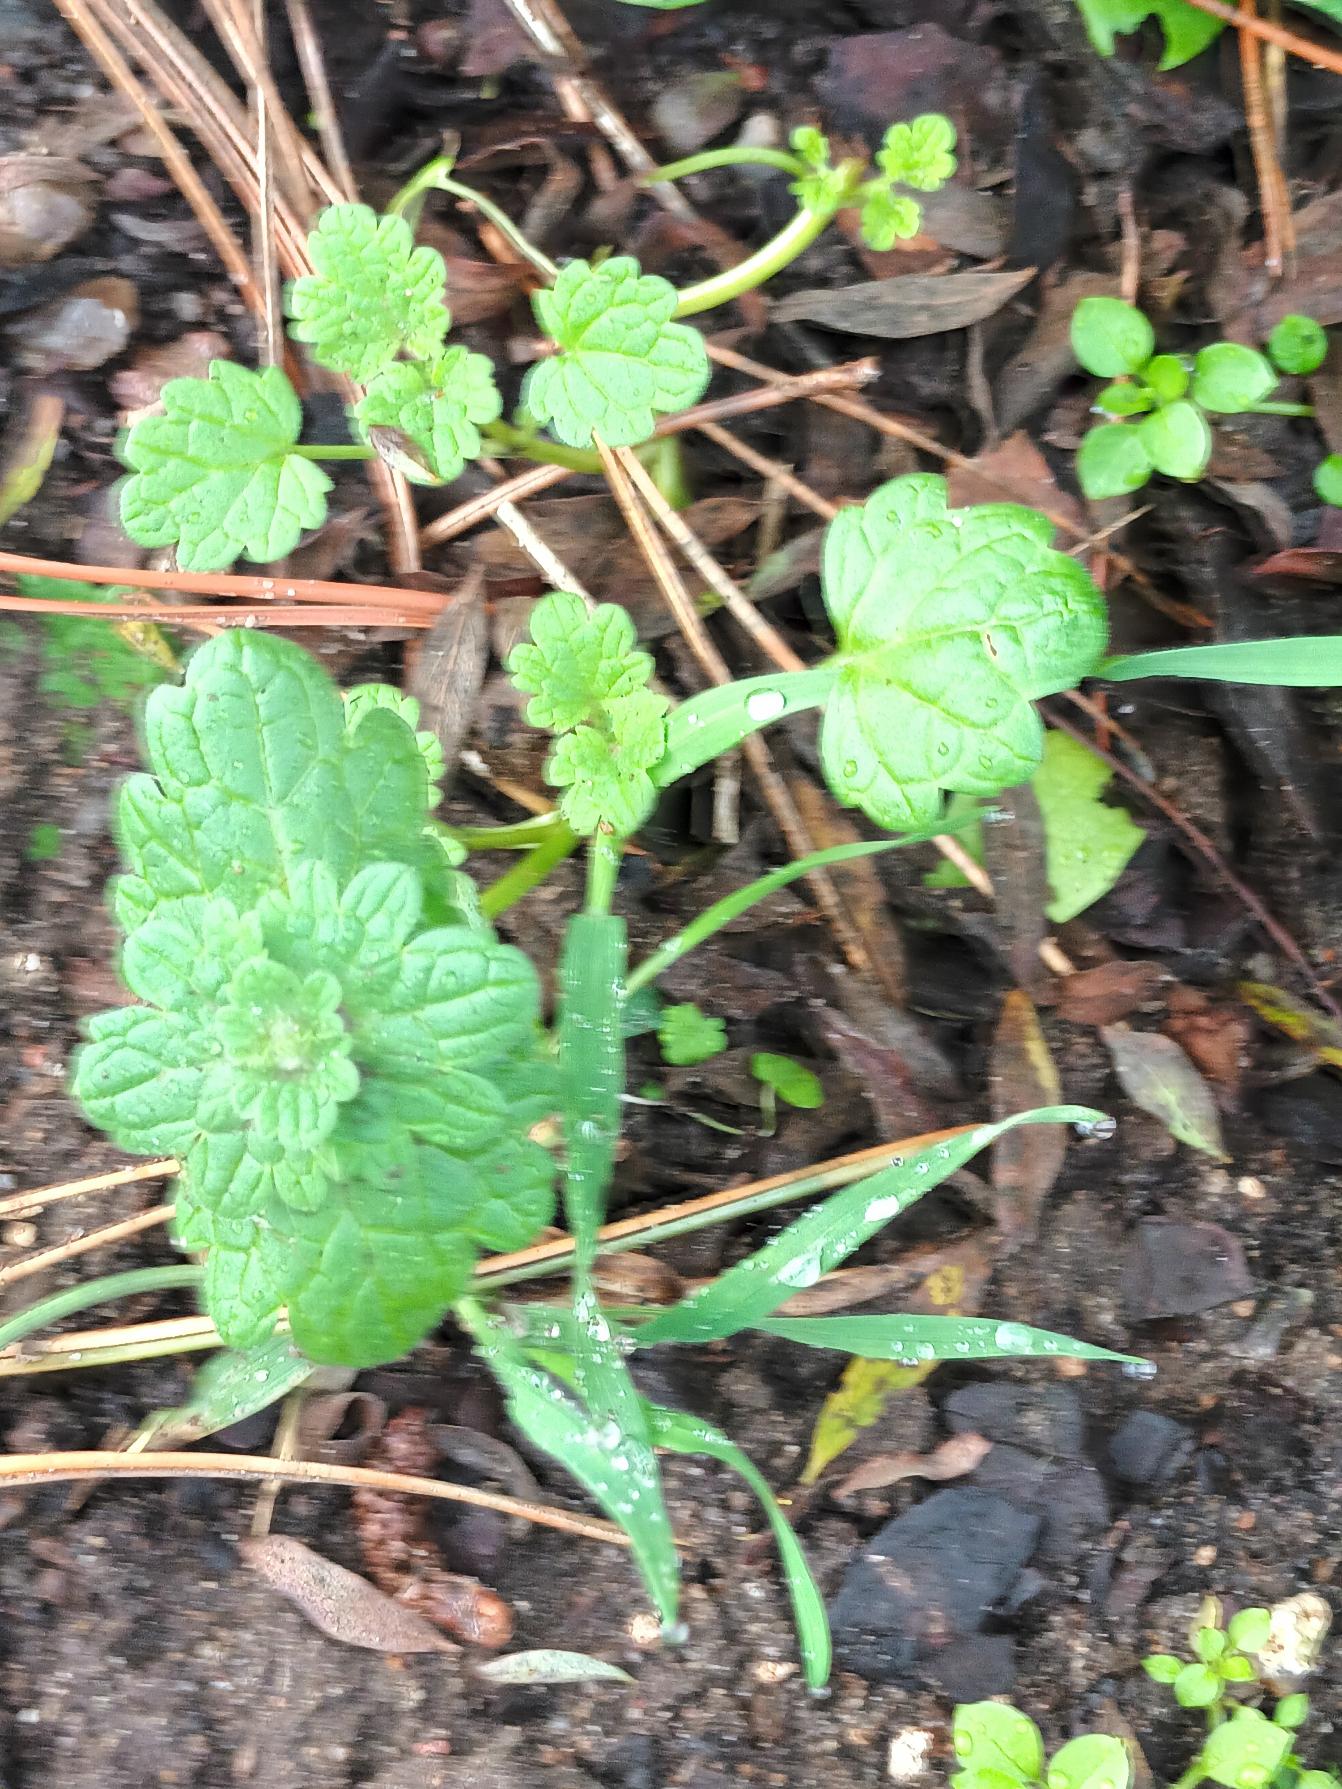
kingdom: Plantae
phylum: Tracheophyta
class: Magnoliopsida
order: Lamiales
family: Lamiaceae
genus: Lamium
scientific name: Lamium amplexicaule
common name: Liden tvetand
